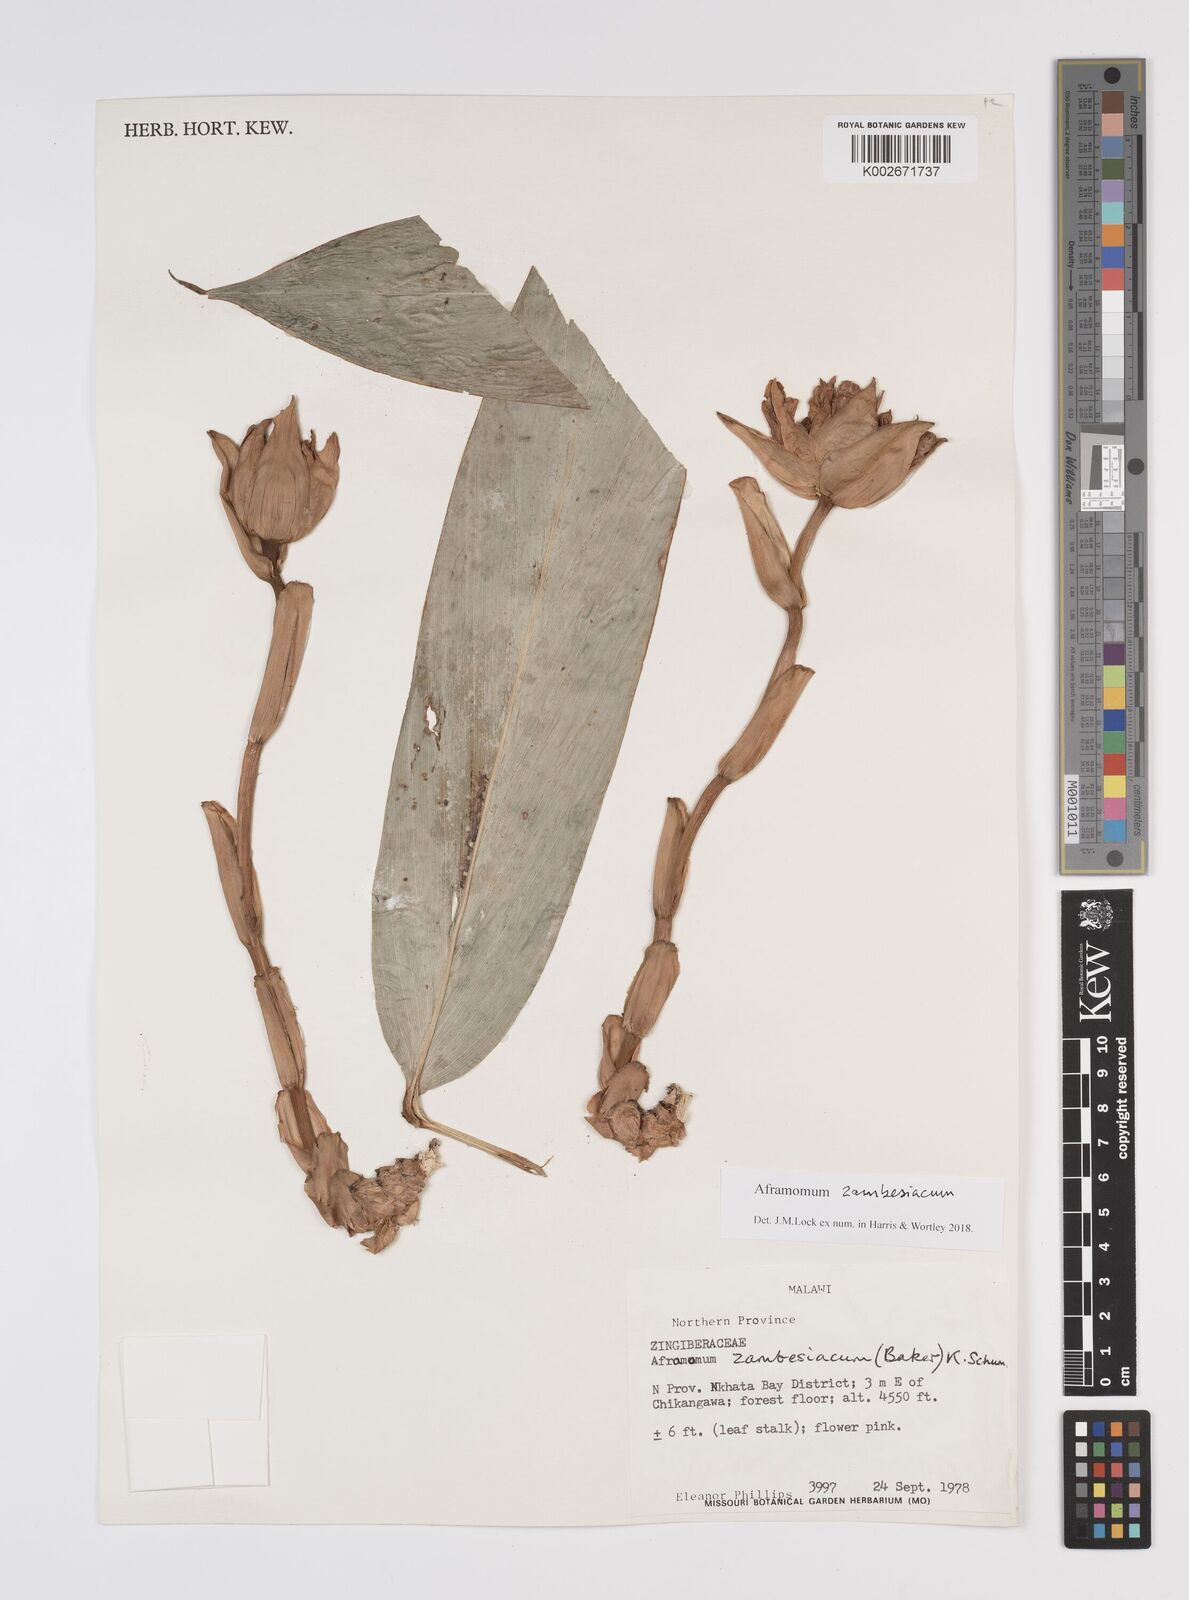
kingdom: Plantae
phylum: Tracheophyta
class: Liliopsida
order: Zingiberales
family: Zingiberaceae
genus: Aframomum
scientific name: Aframomum zambesiacum
